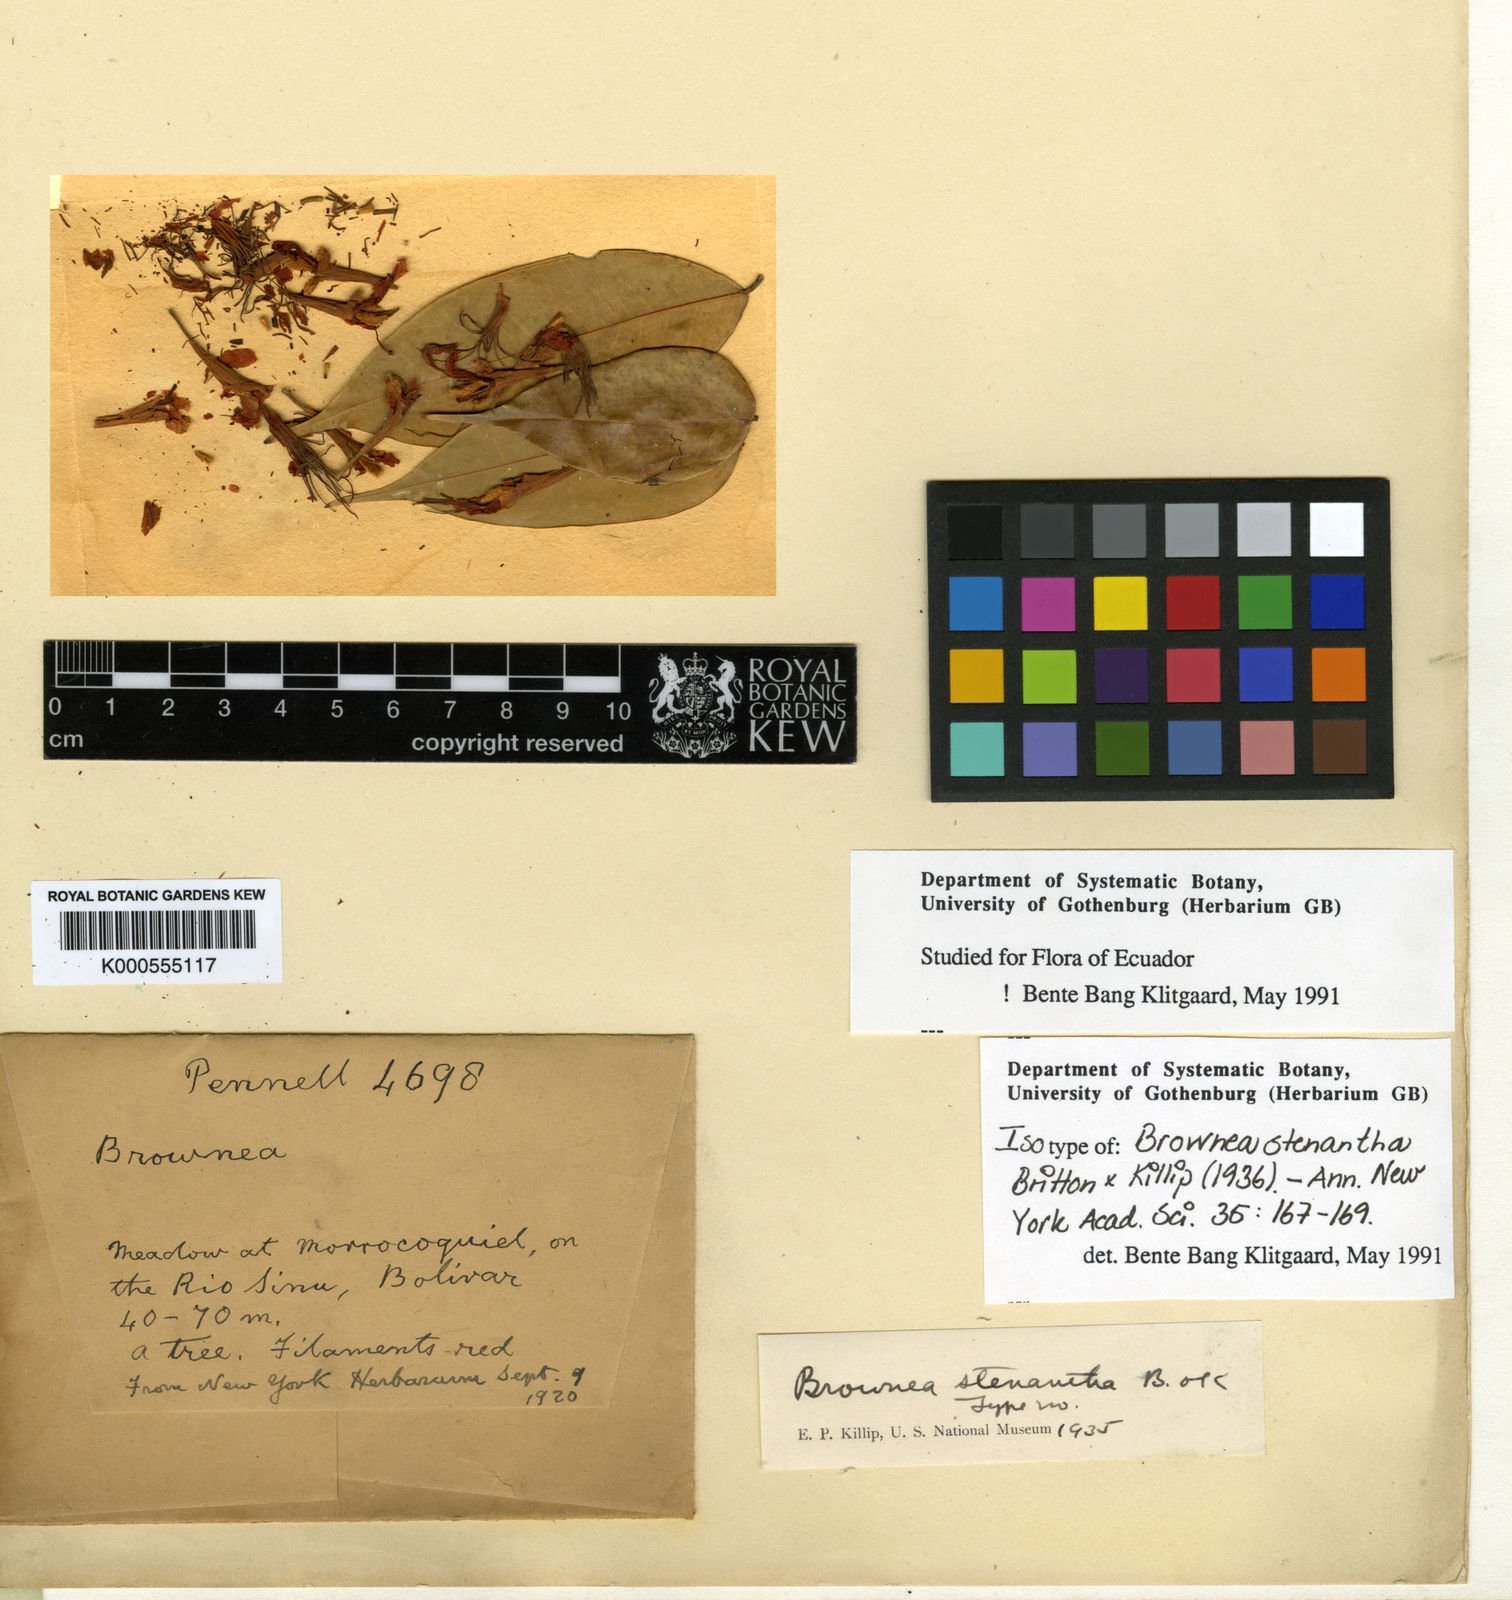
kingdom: Plantae
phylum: Tracheophyta
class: Magnoliopsida
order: Fabales
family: Fabaceae
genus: Brownea
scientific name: Brownea stenantha
